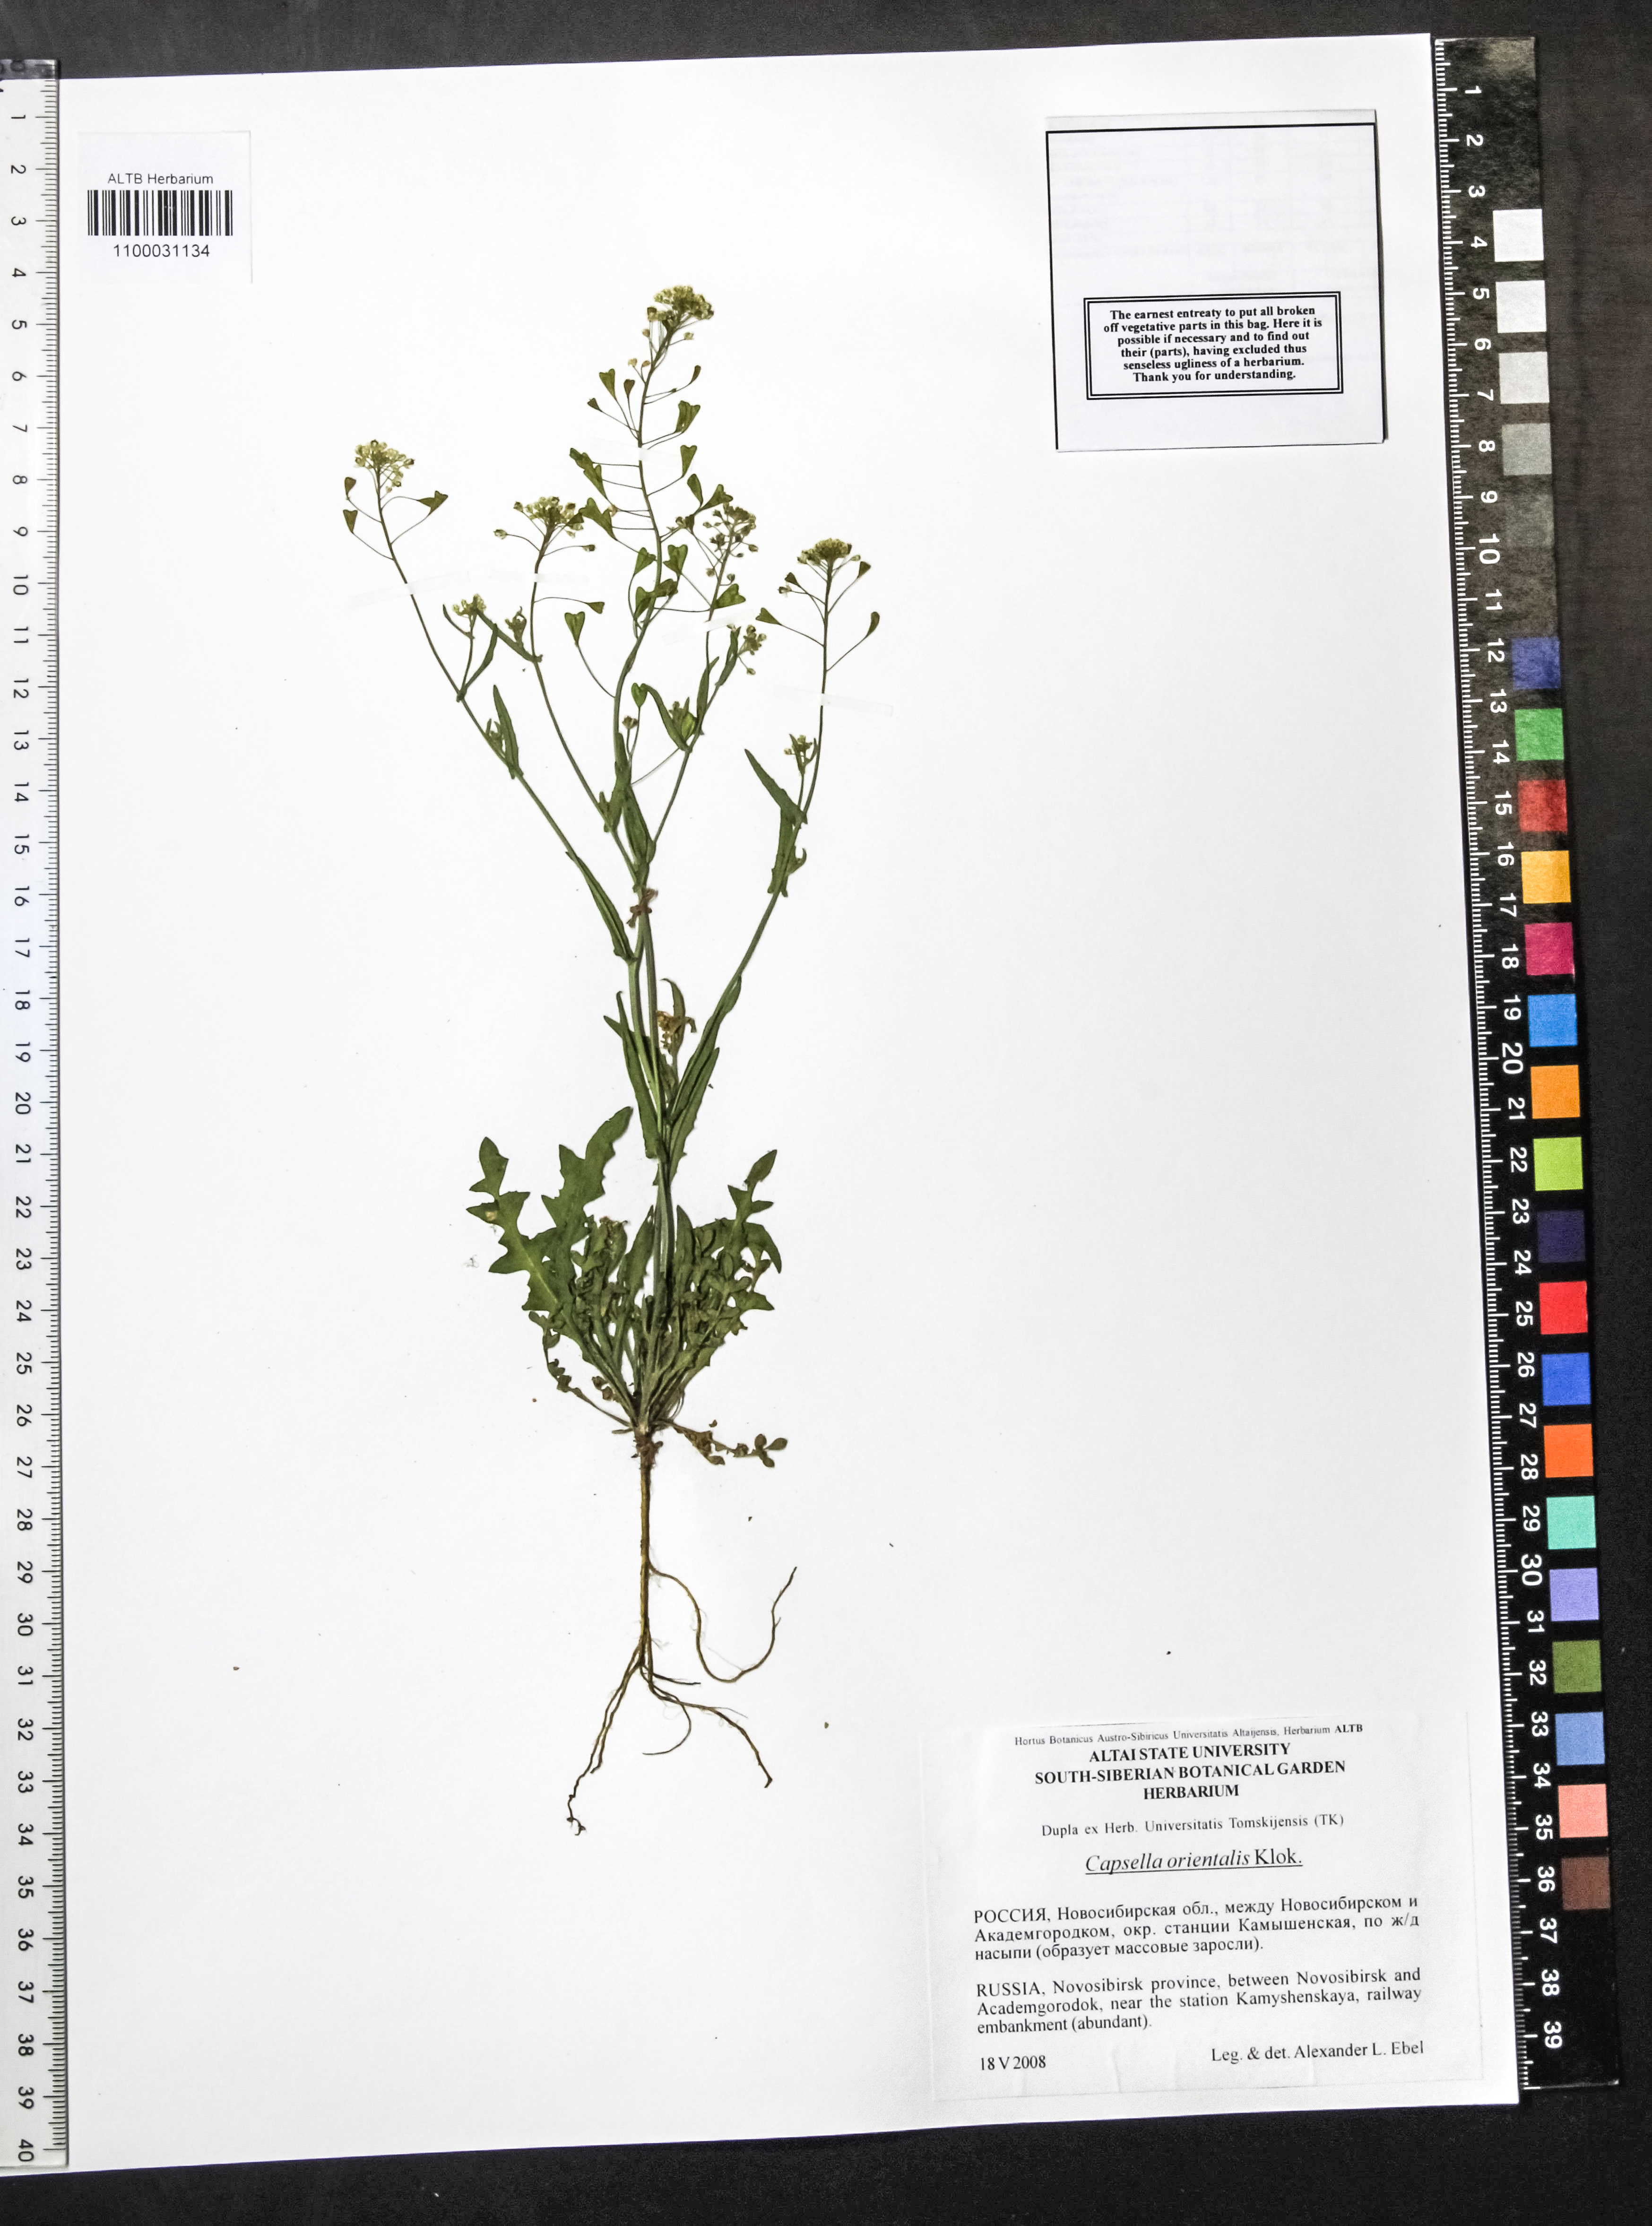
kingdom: Plantae
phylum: Tracheophyta
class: Magnoliopsida
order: Brassicales
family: Brassicaceae
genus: Capsella
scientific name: Capsella orientalis
